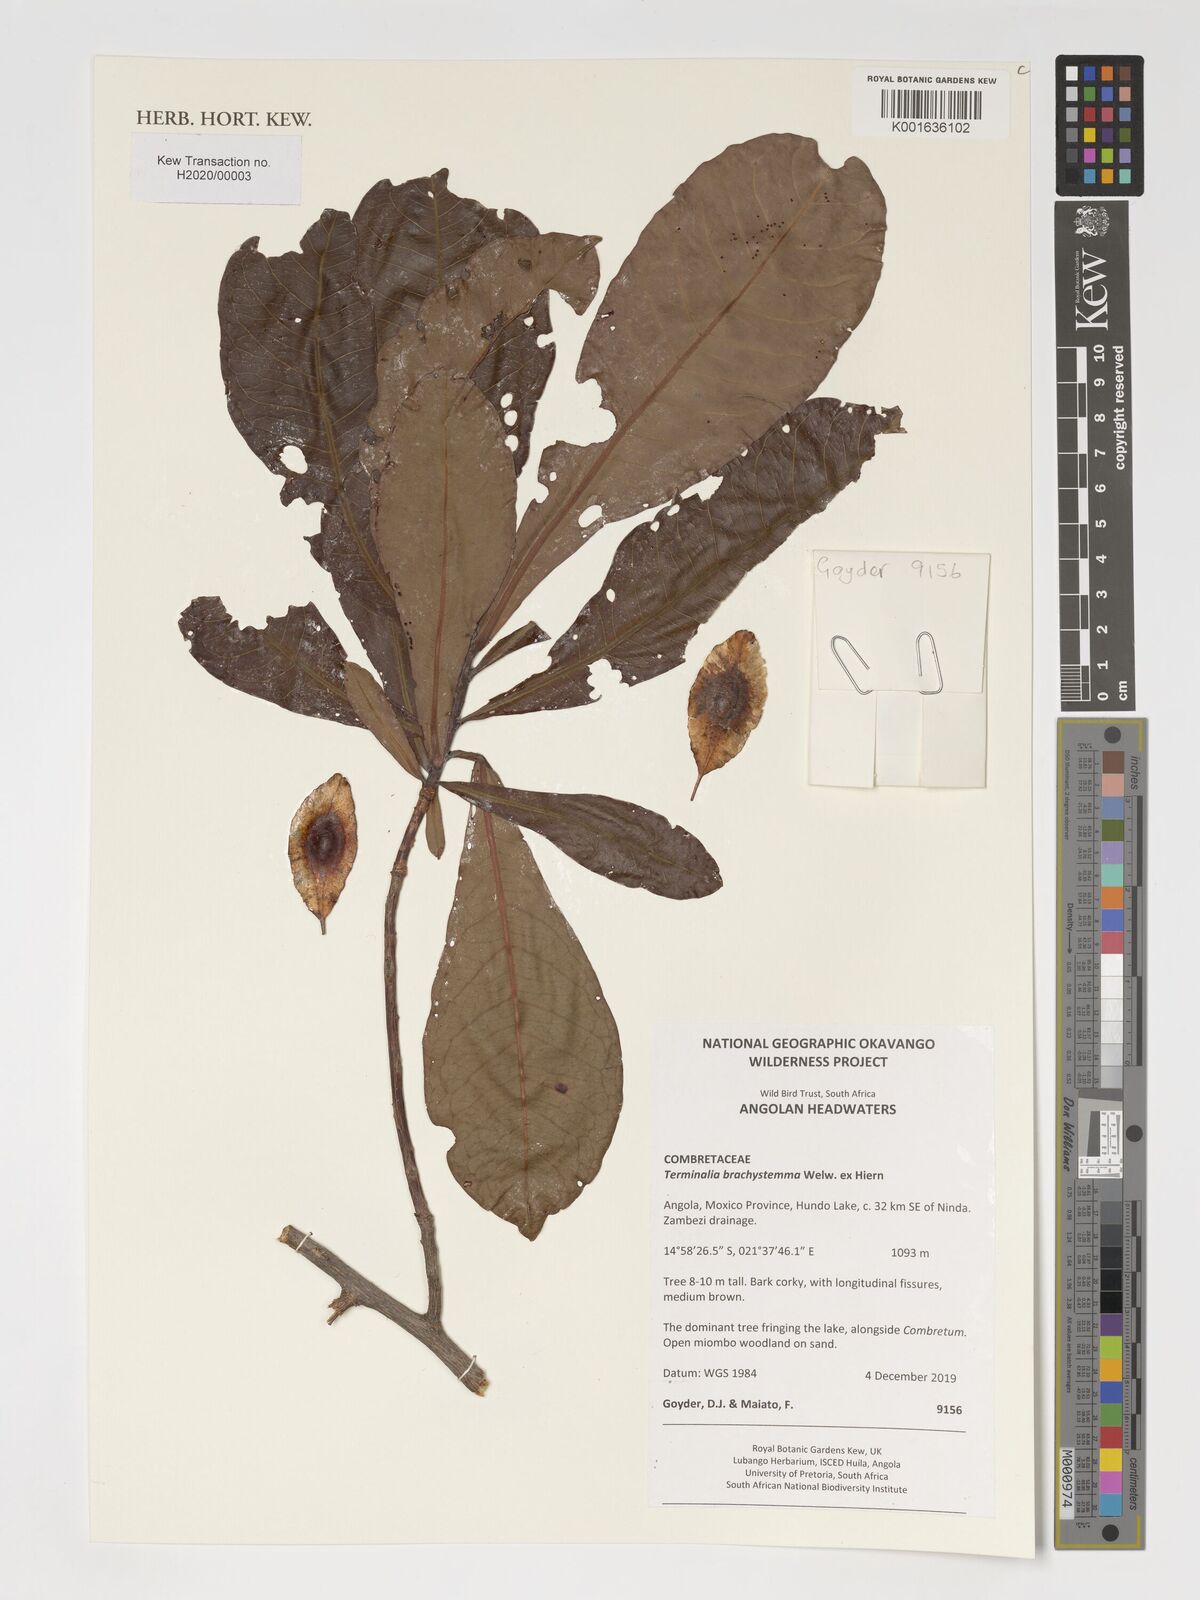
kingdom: Plantae
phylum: Tracheophyta
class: Magnoliopsida
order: Myrtales
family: Combretaceae
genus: Terminalia
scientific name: Terminalia brachystemma
